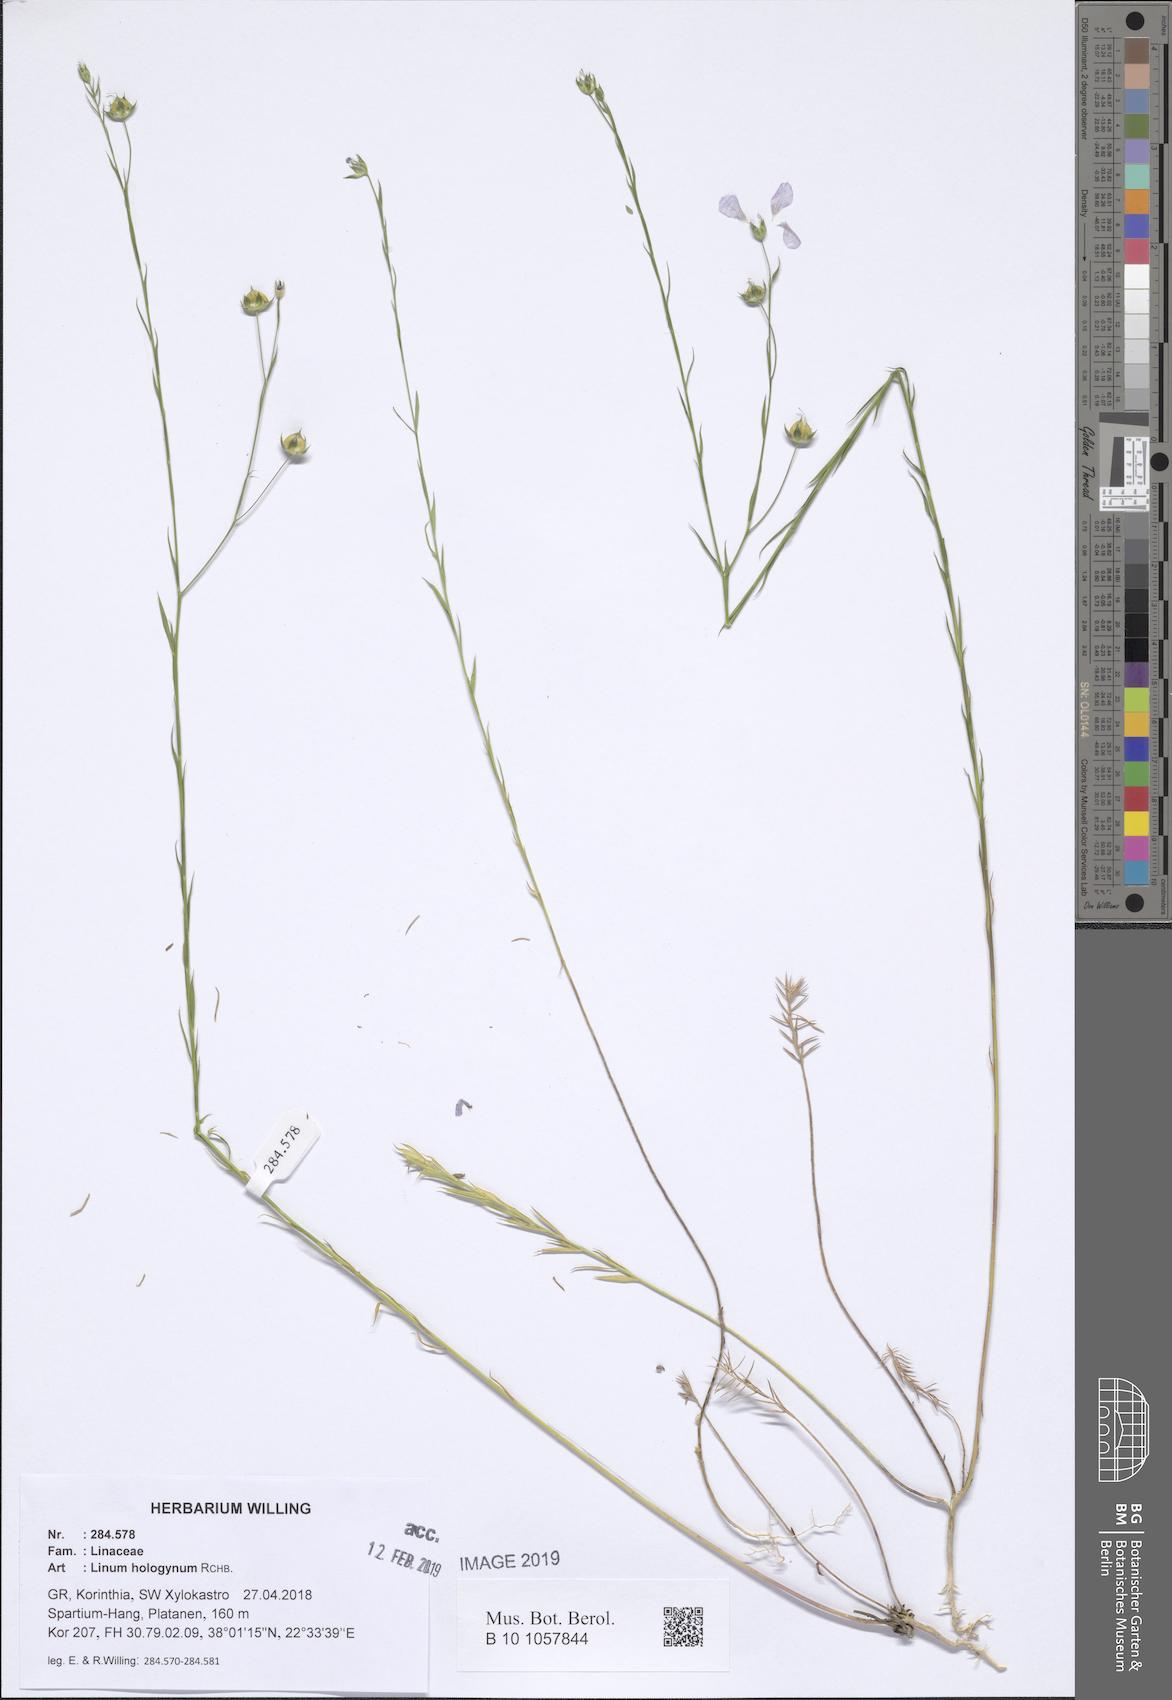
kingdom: Plantae
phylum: Tracheophyta
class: Magnoliopsida
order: Malpighiales
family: Linaceae
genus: Linum
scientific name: Linum bienne
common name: Pale flax
